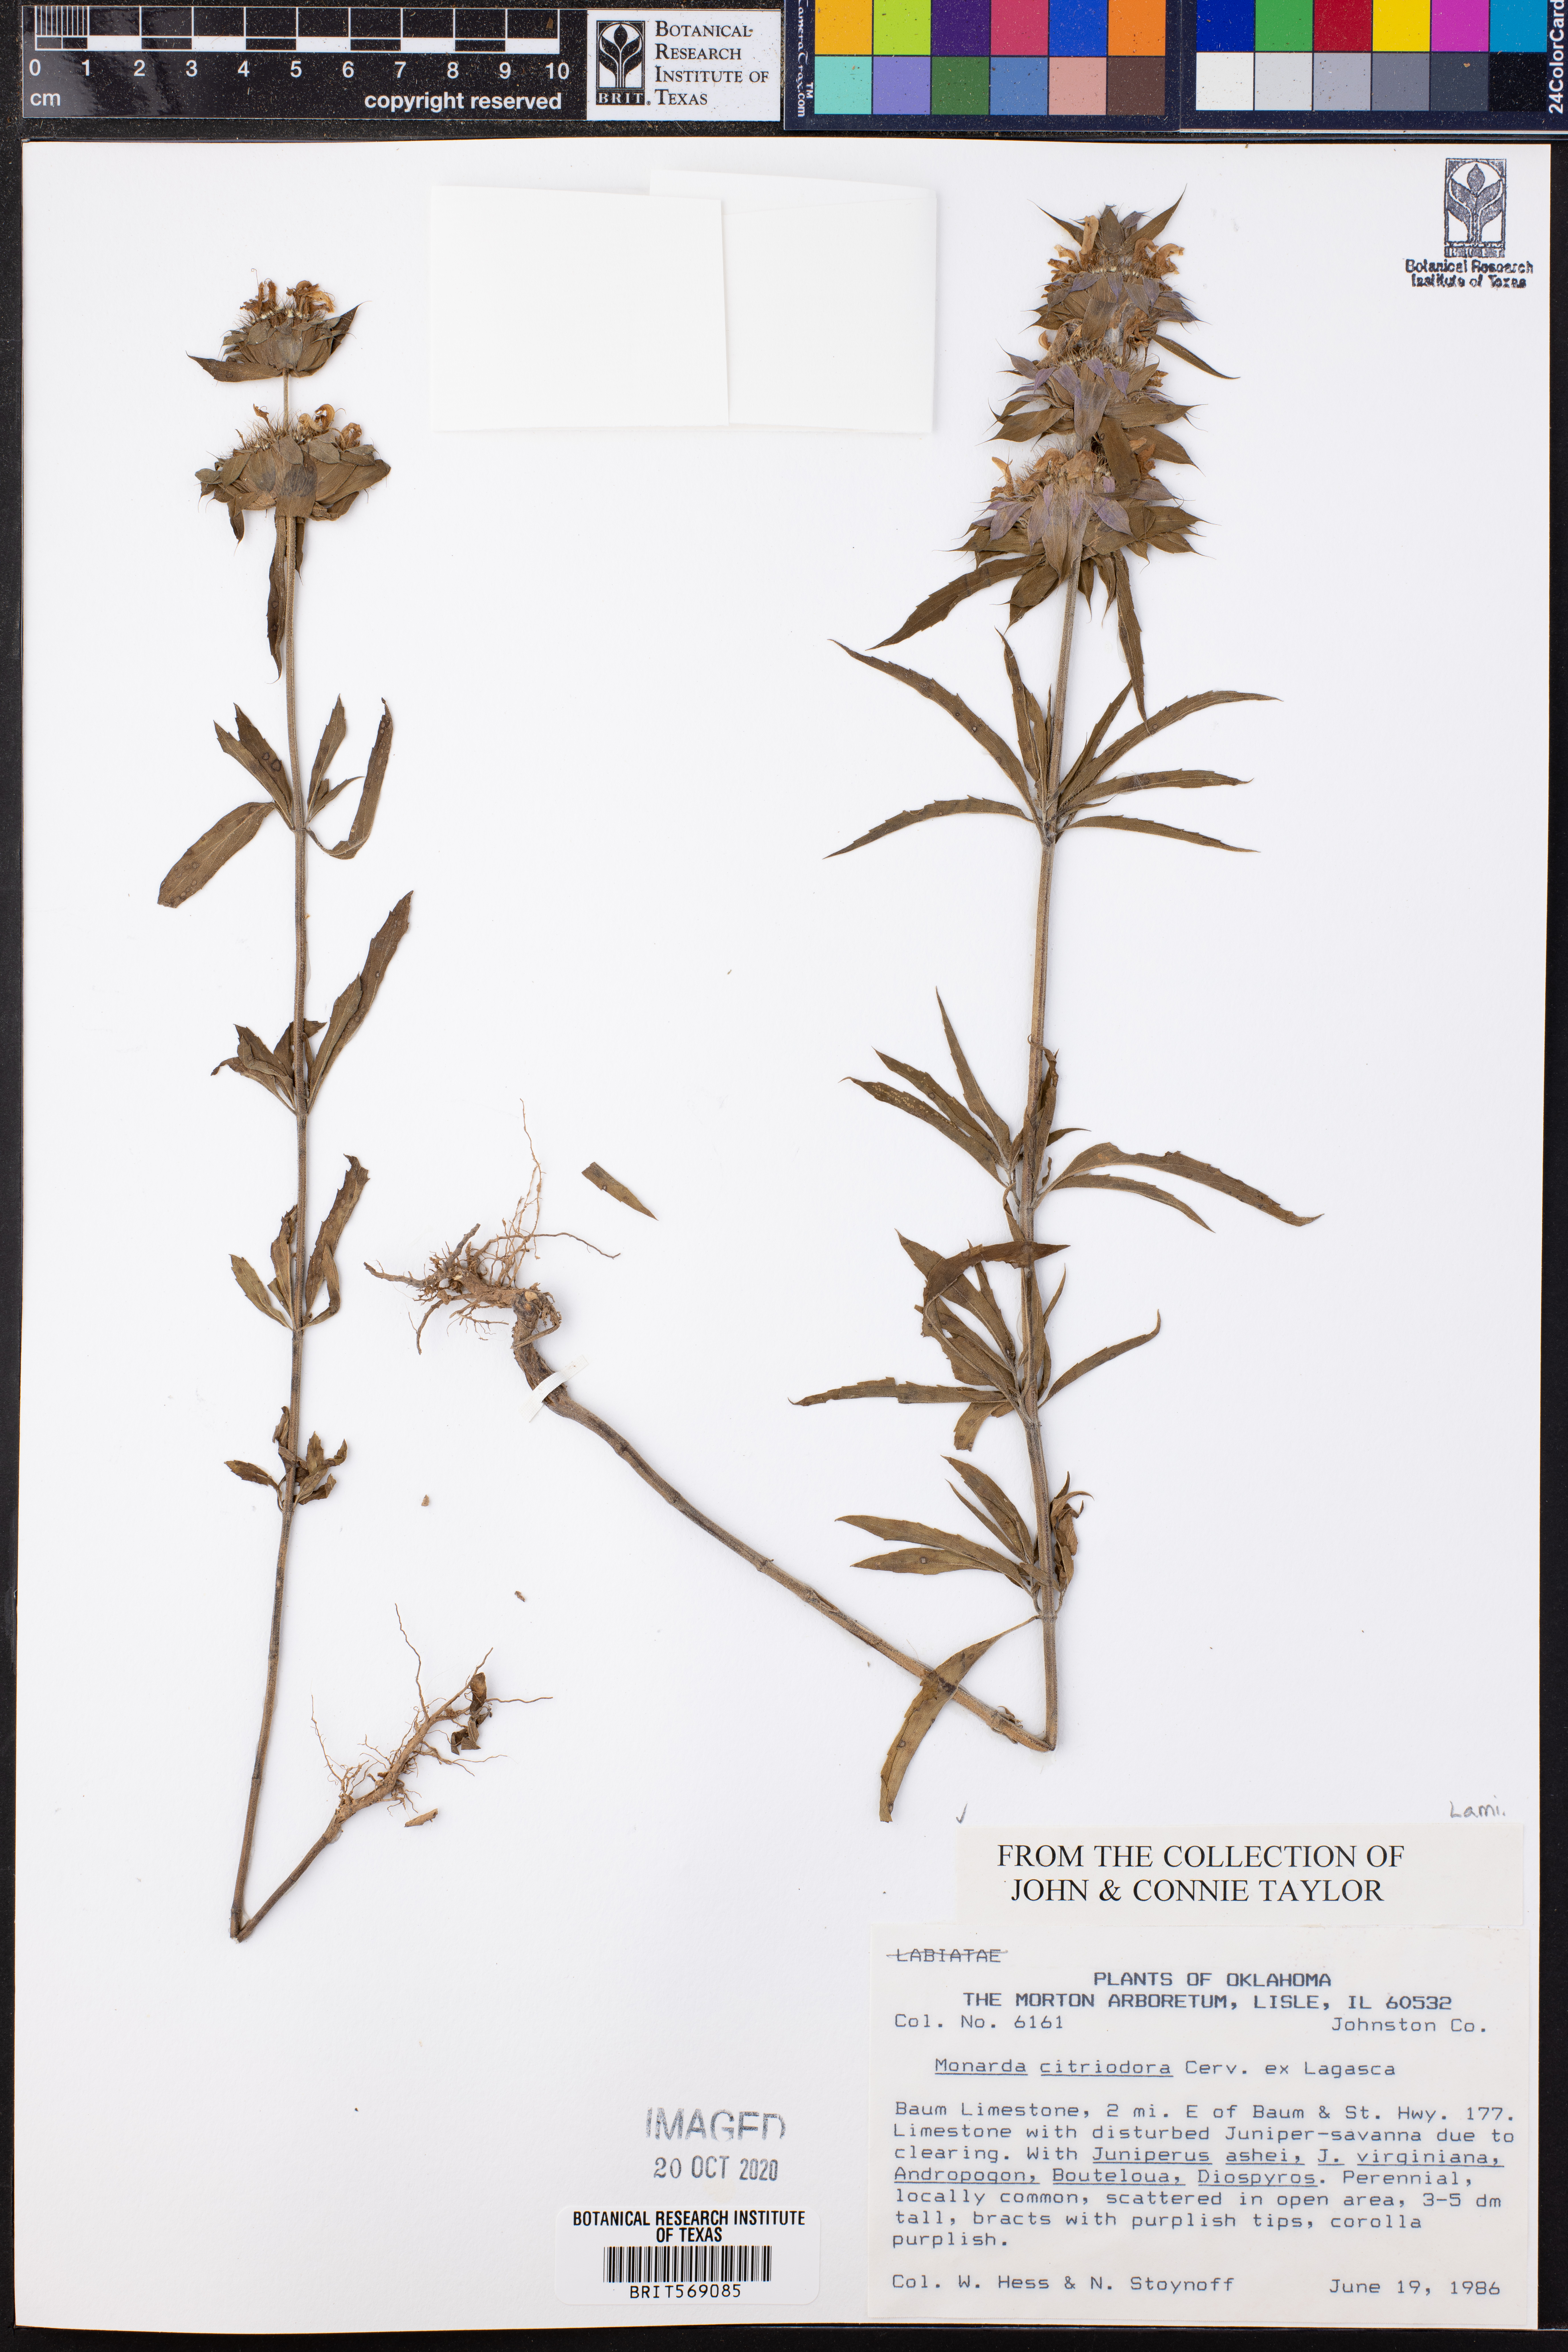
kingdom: Plantae
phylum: Tracheophyta
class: Magnoliopsida
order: Lamiales
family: Lamiaceae
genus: Monarda
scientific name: Monarda citriodora
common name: Lemon beebalm
